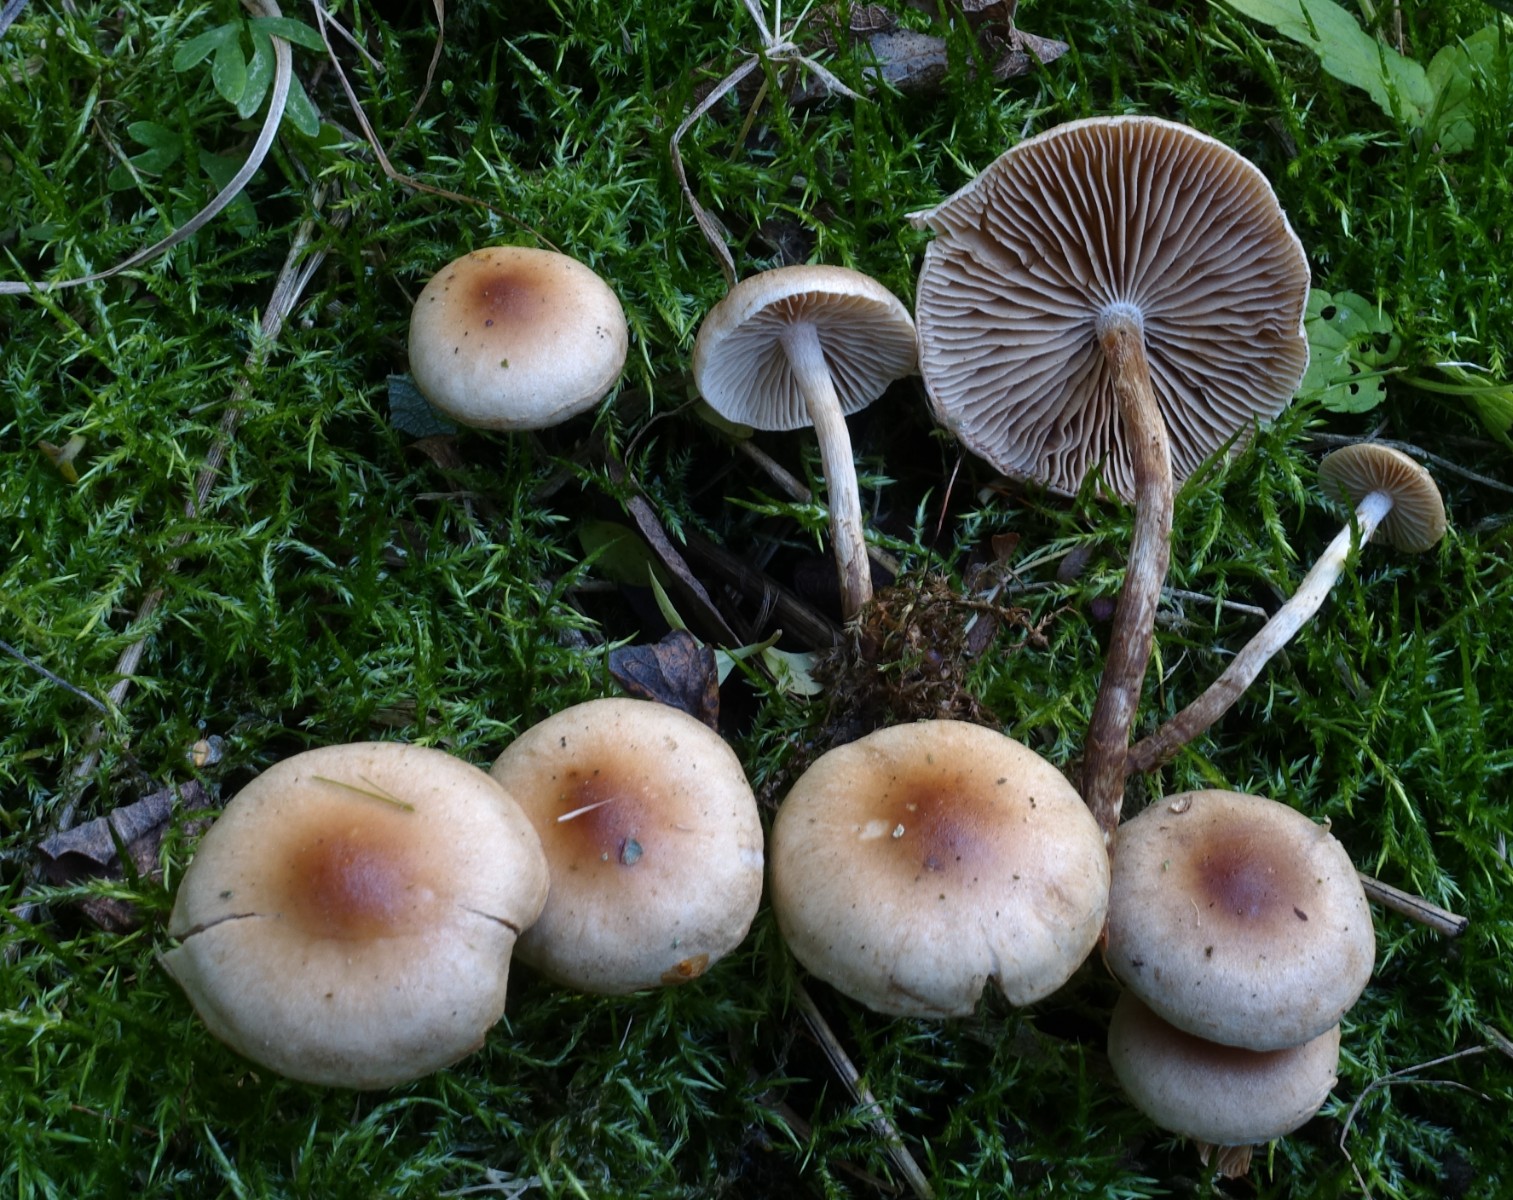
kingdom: Fungi
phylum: Basidiomycota
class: Agaricomycetes
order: Agaricales
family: Hymenogastraceae
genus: Hebeloma
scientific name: Hebeloma mesophaeum
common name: lerbrun tåreblad
